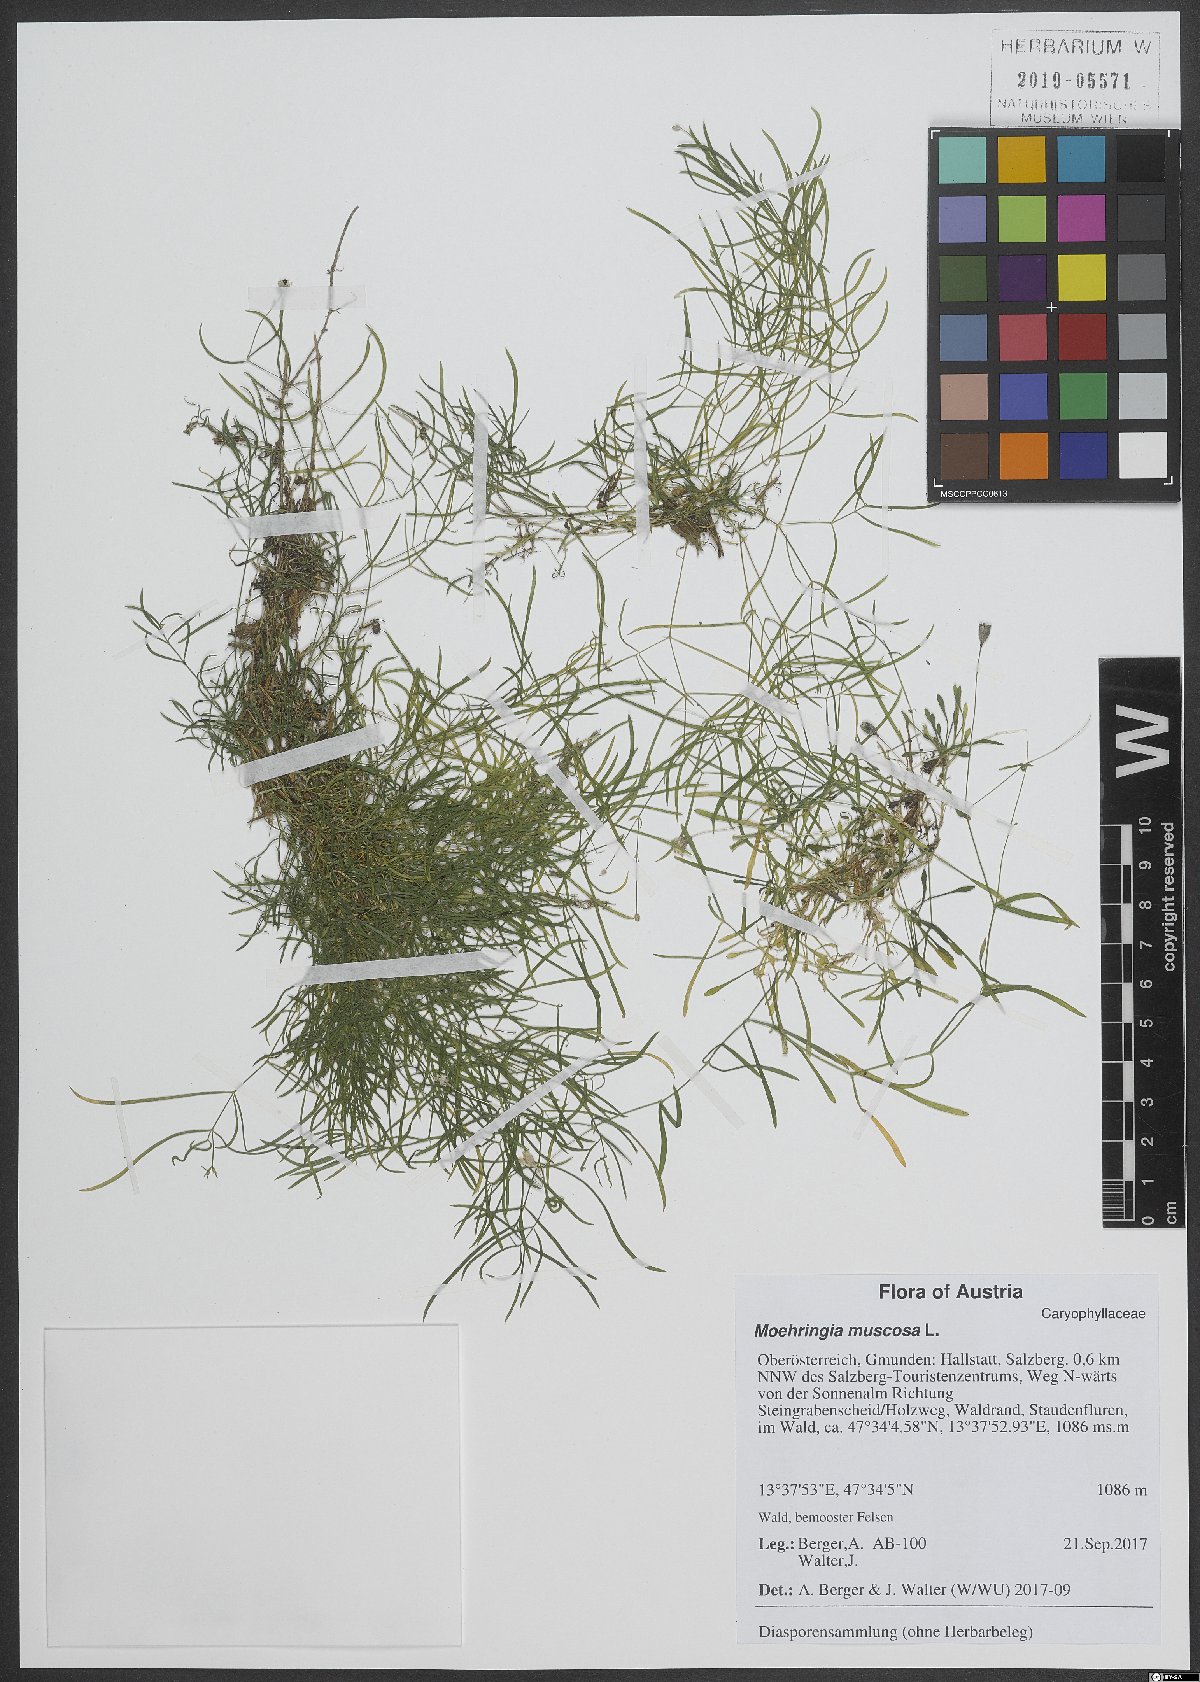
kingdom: Plantae
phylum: Tracheophyta
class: Magnoliopsida
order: Caryophyllales
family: Caryophyllaceae
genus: Moehringia
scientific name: Moehringia muscosa
